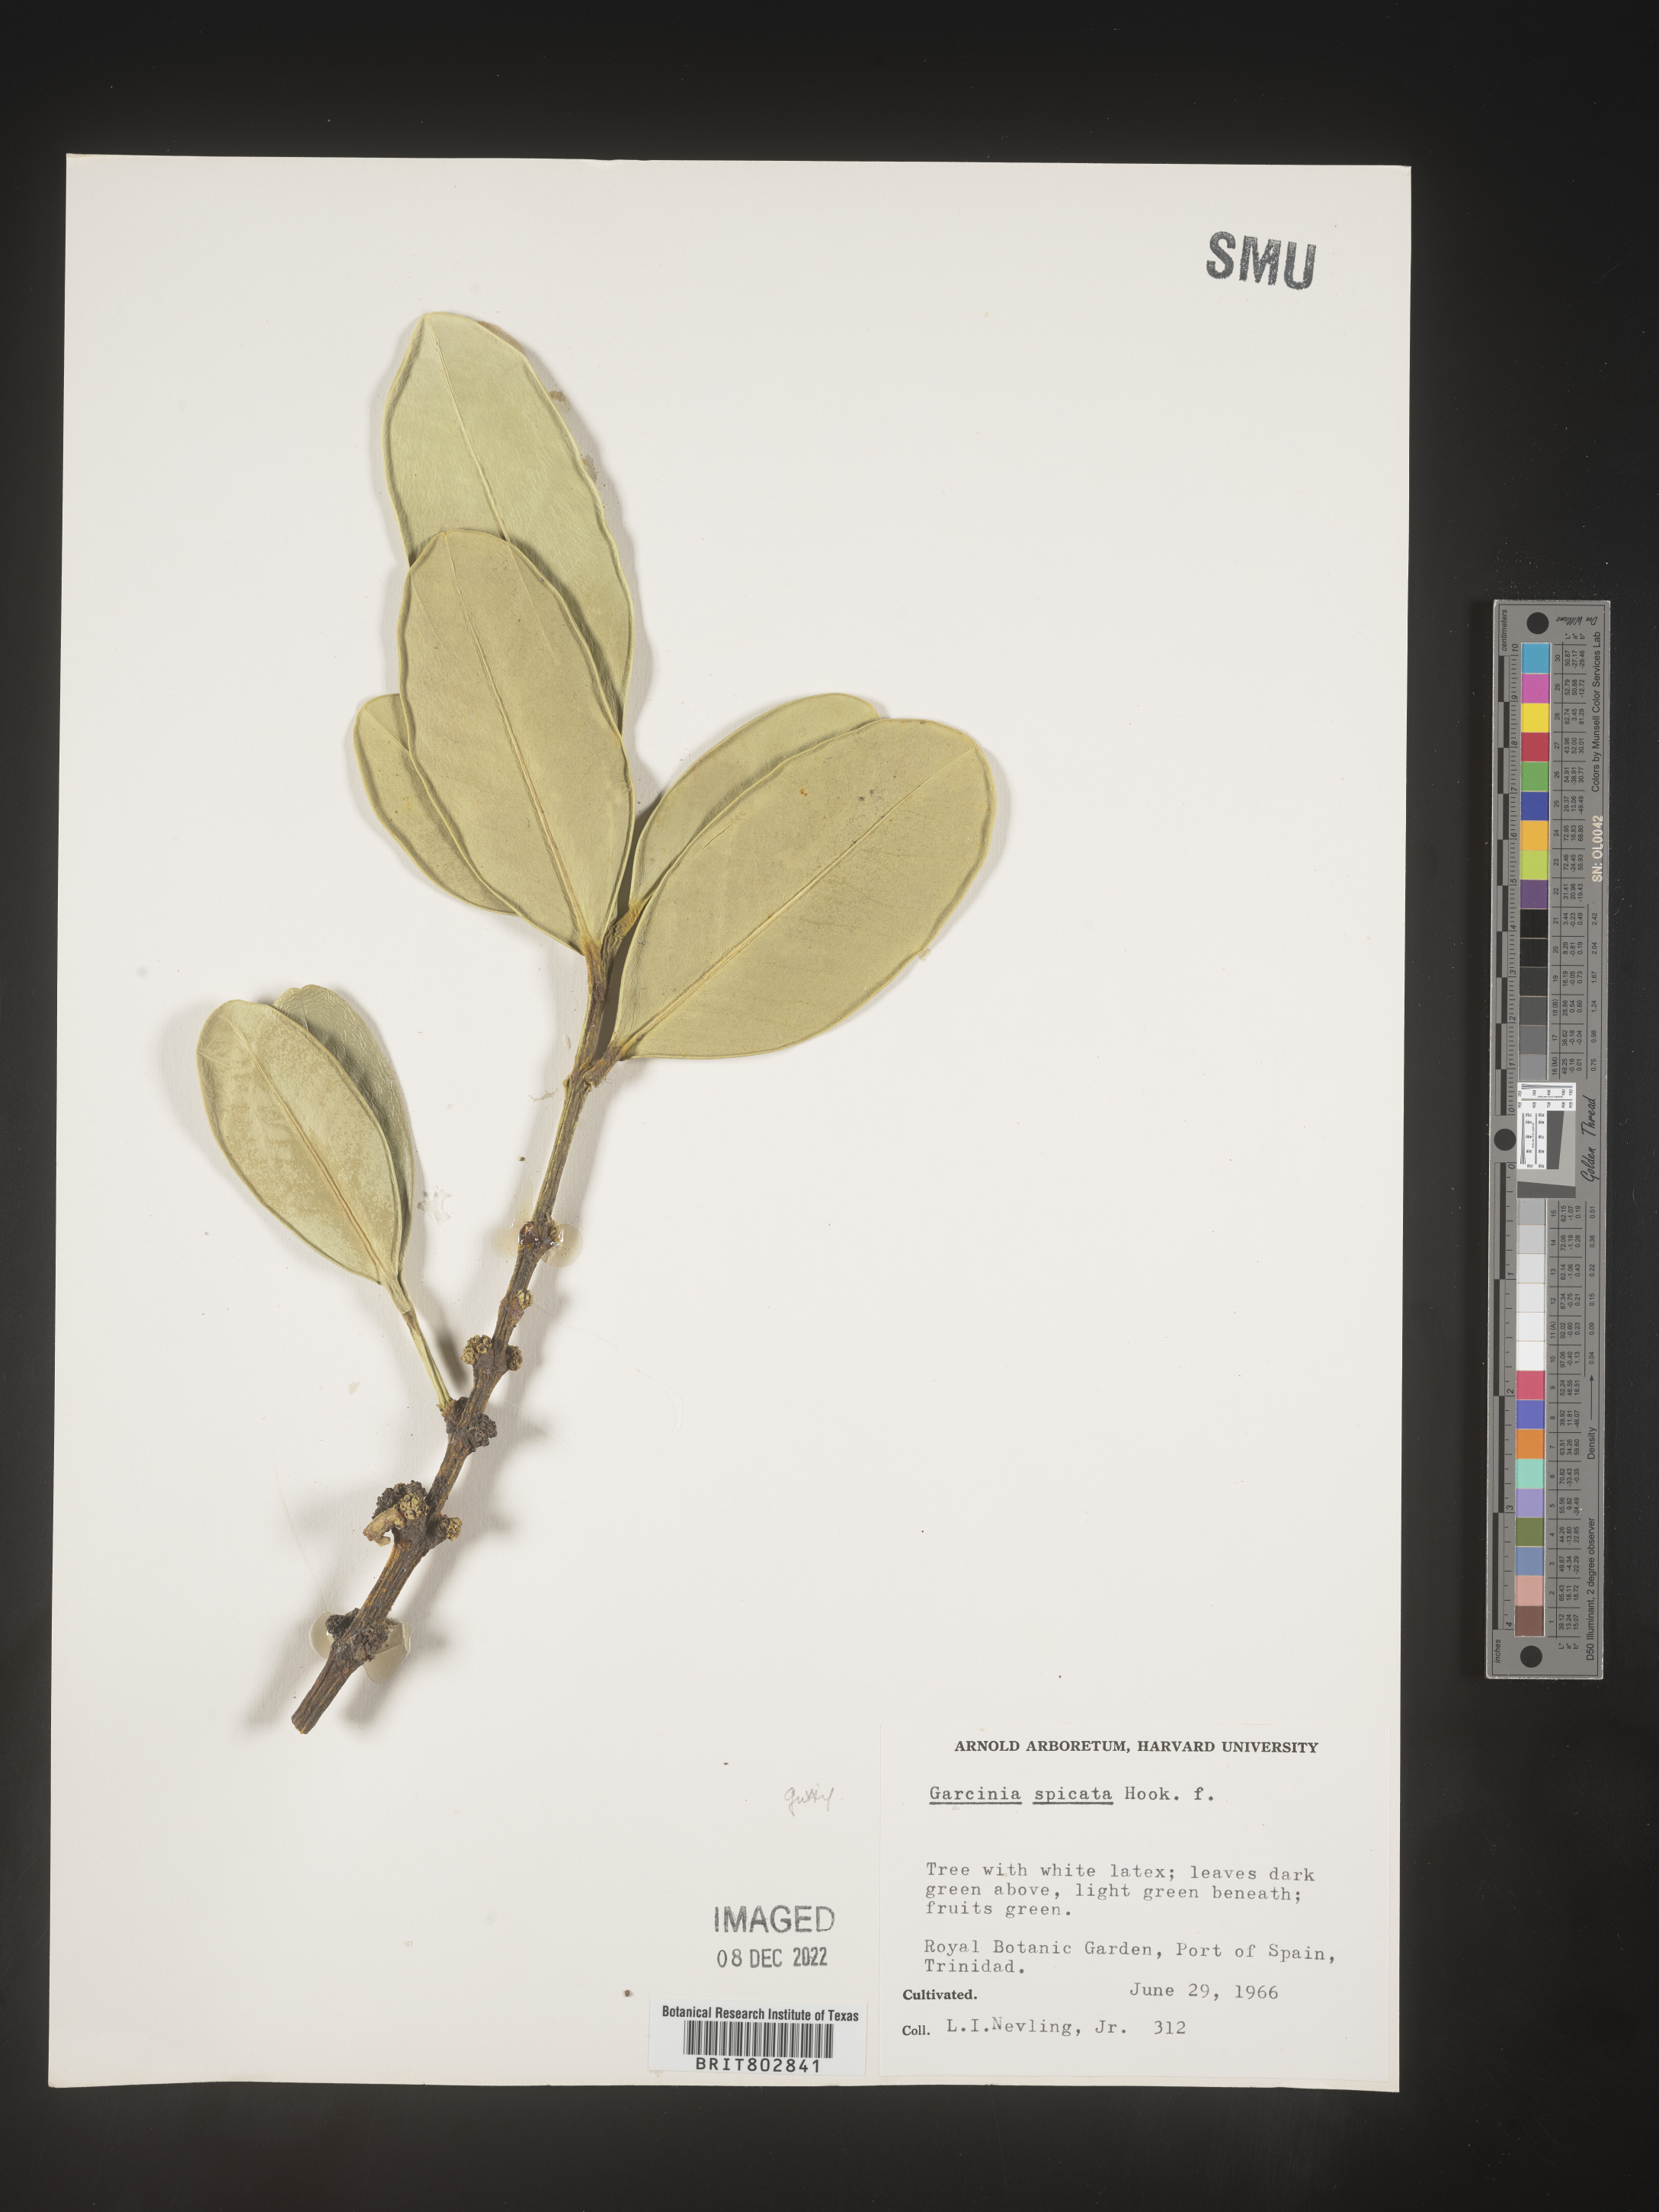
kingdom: Plantae
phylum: Tracheophyta
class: Magnoliopsida
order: Malpighiales
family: Clusiaceae
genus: Garcinia
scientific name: Garcinia
